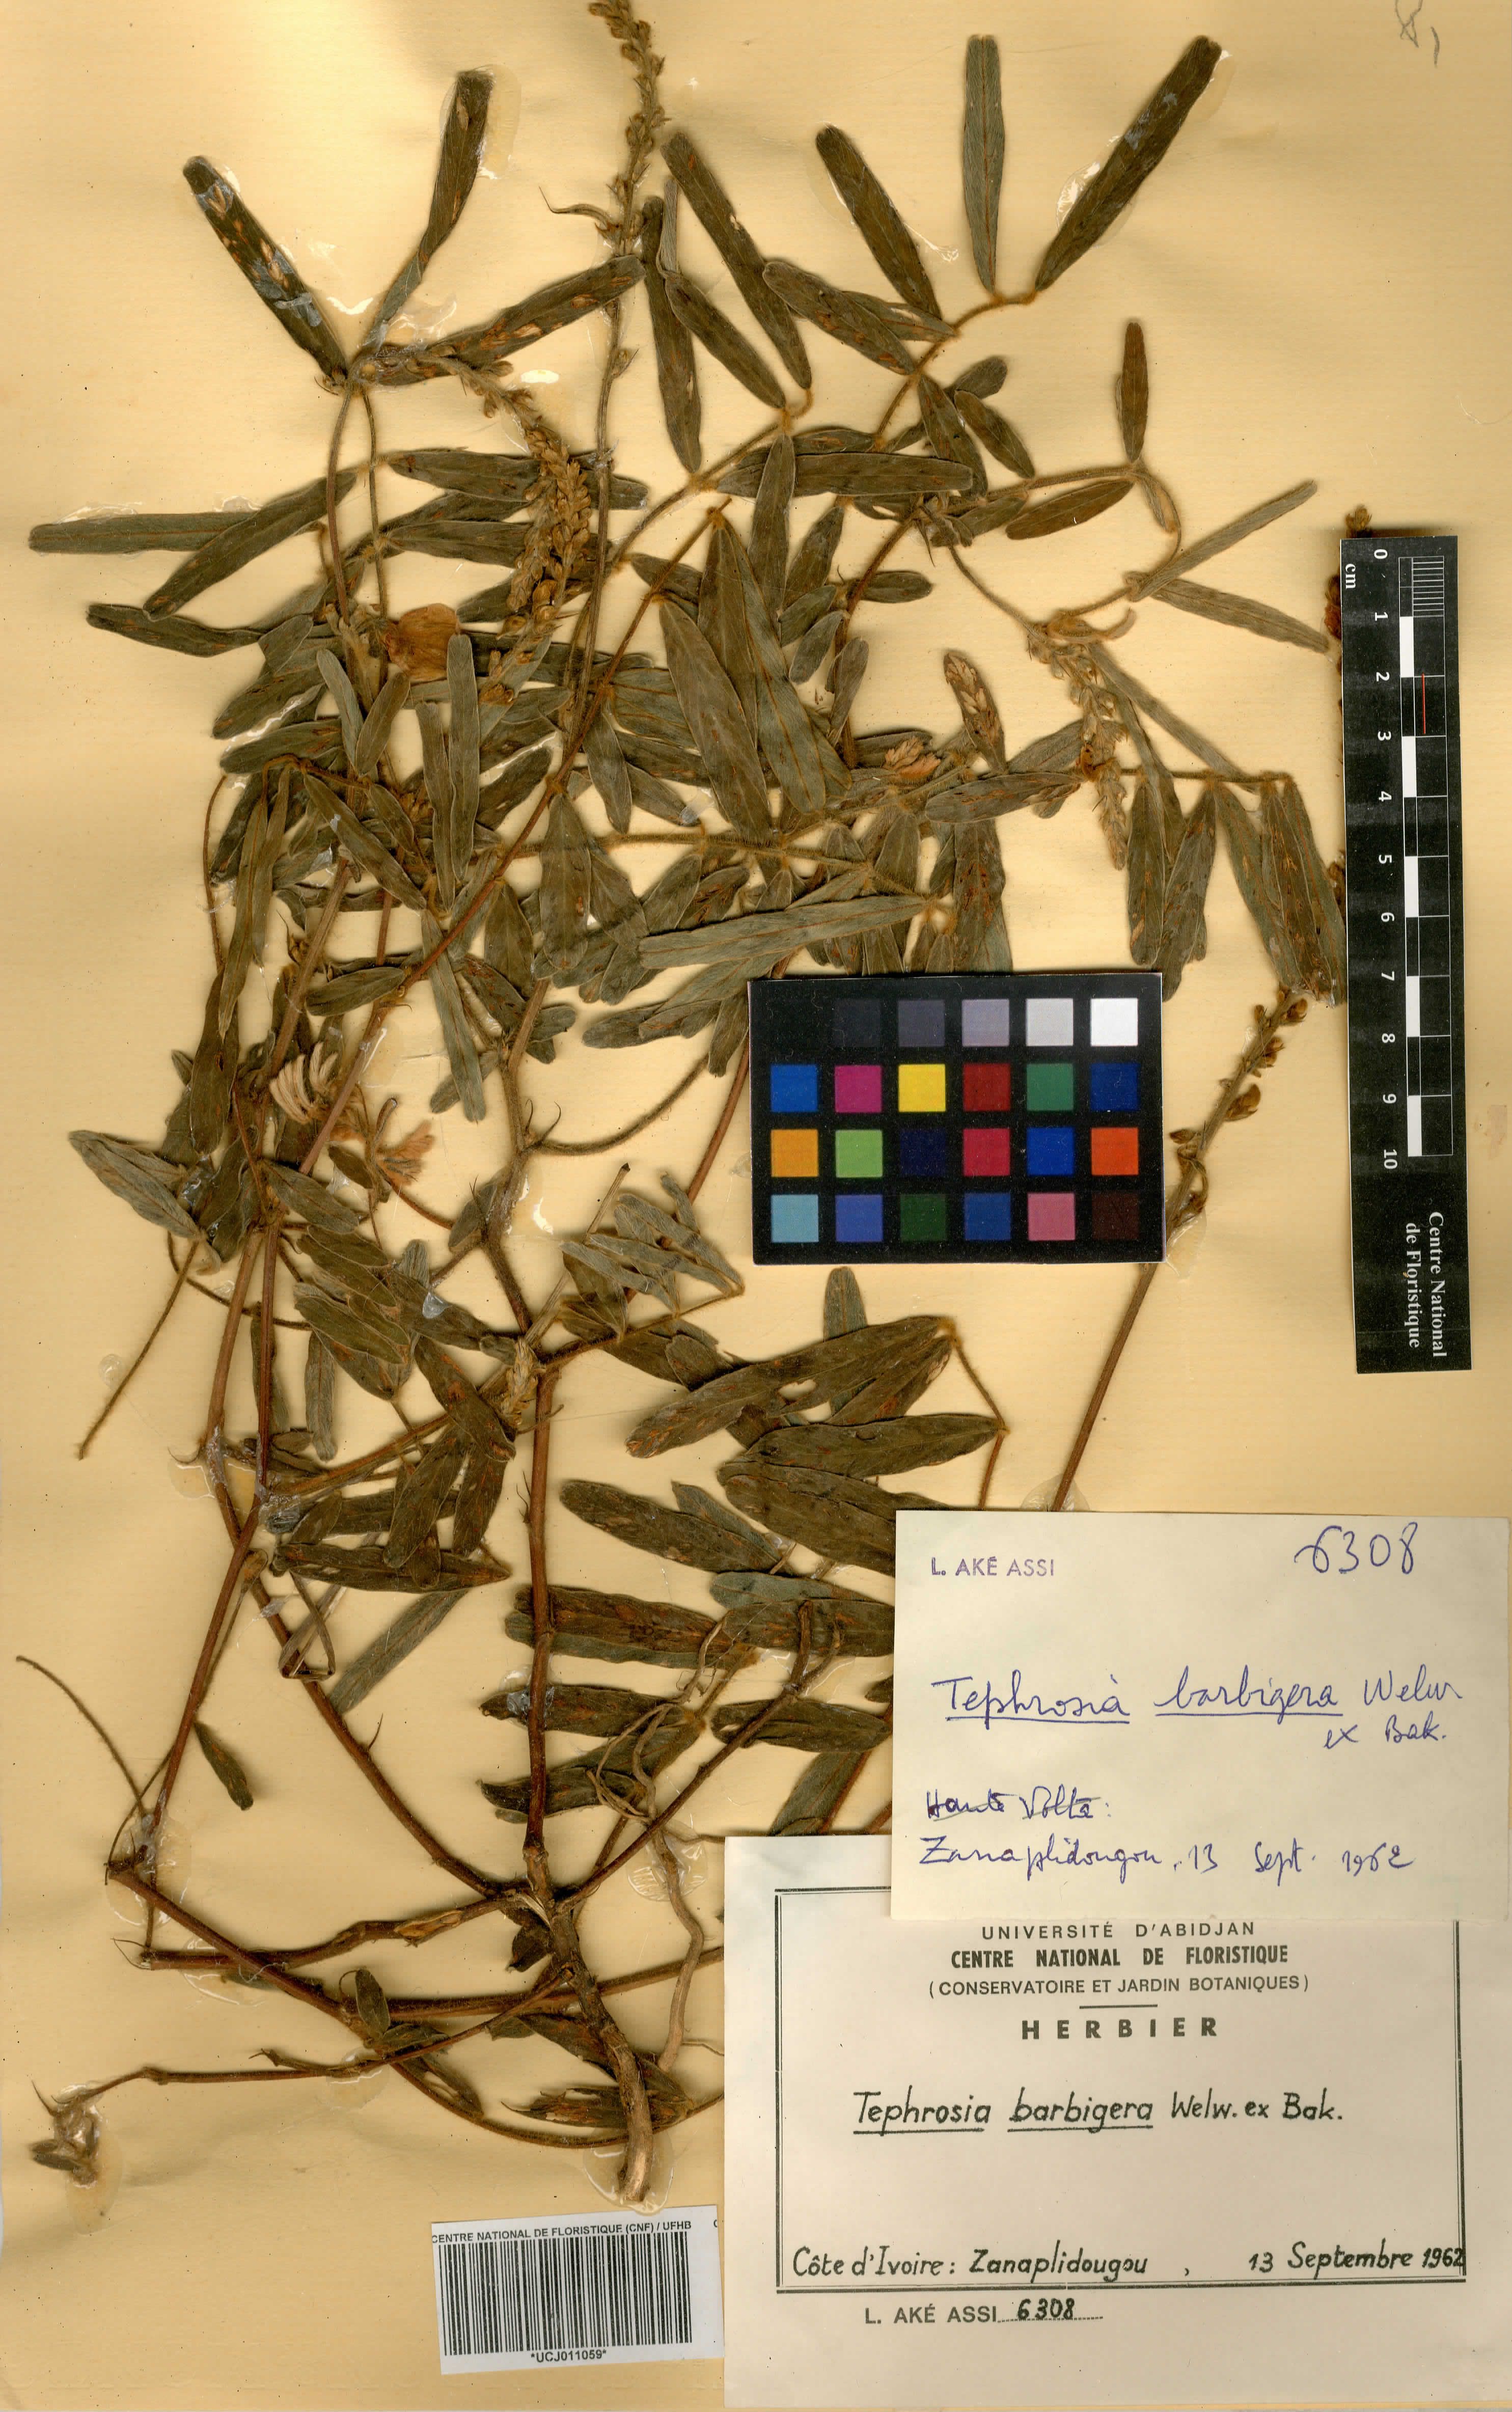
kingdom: Plantae
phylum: Tracheophyta
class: Magnoliopsida
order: Fabales
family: Fabaceae
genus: Tephrosia
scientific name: Tephrosia nana
